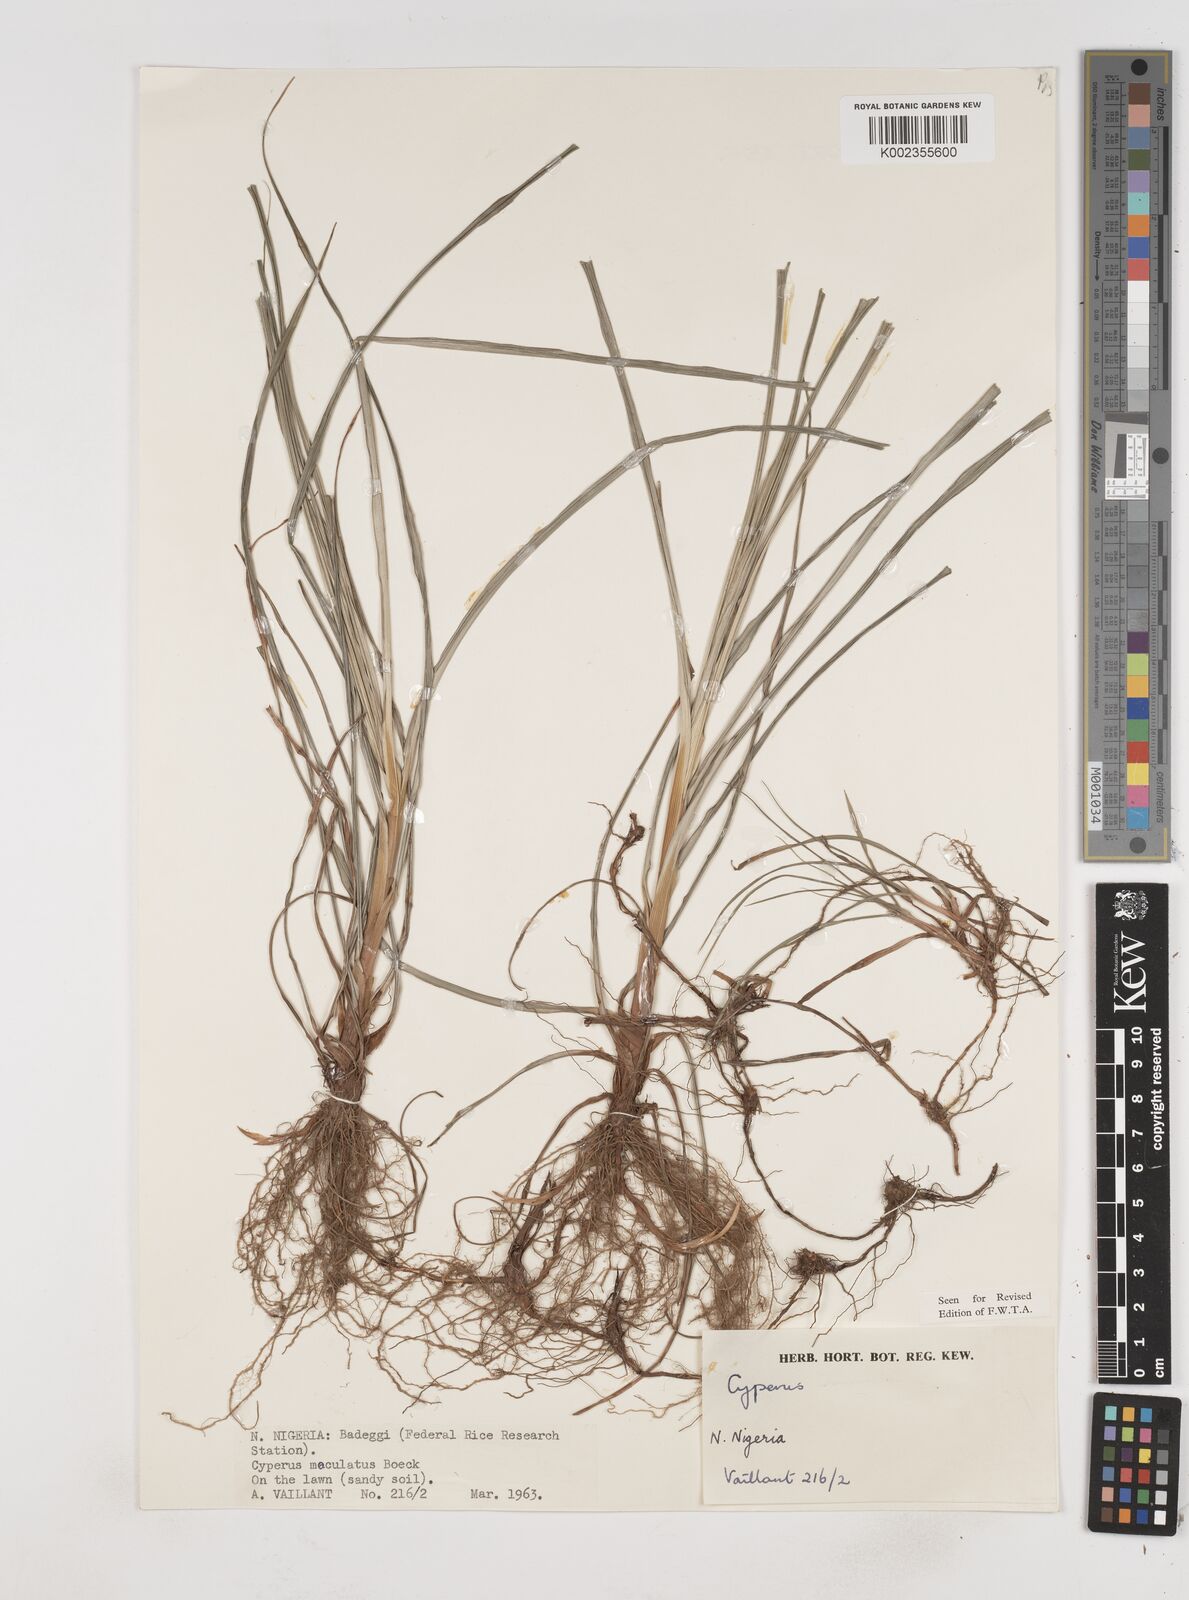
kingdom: Plantae
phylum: Tracheophyta
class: Liliopsida
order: Poales
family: Cyperaceae
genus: Cyperus
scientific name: Cyperus maculatus
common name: Maculated sedge
